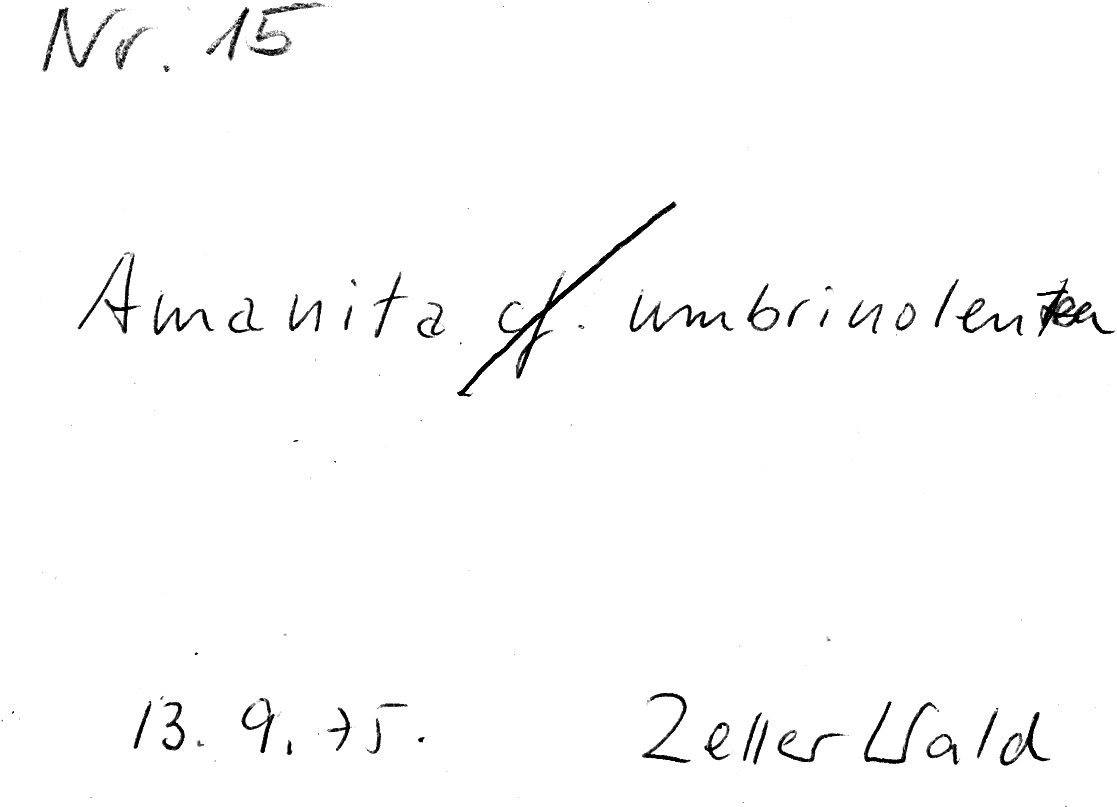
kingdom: Fungi
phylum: Basidiomycota
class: Agaricomycetes
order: Agaricales
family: Amanitaceae
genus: Amanita
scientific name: Amanita battarrae
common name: Banded amanita
